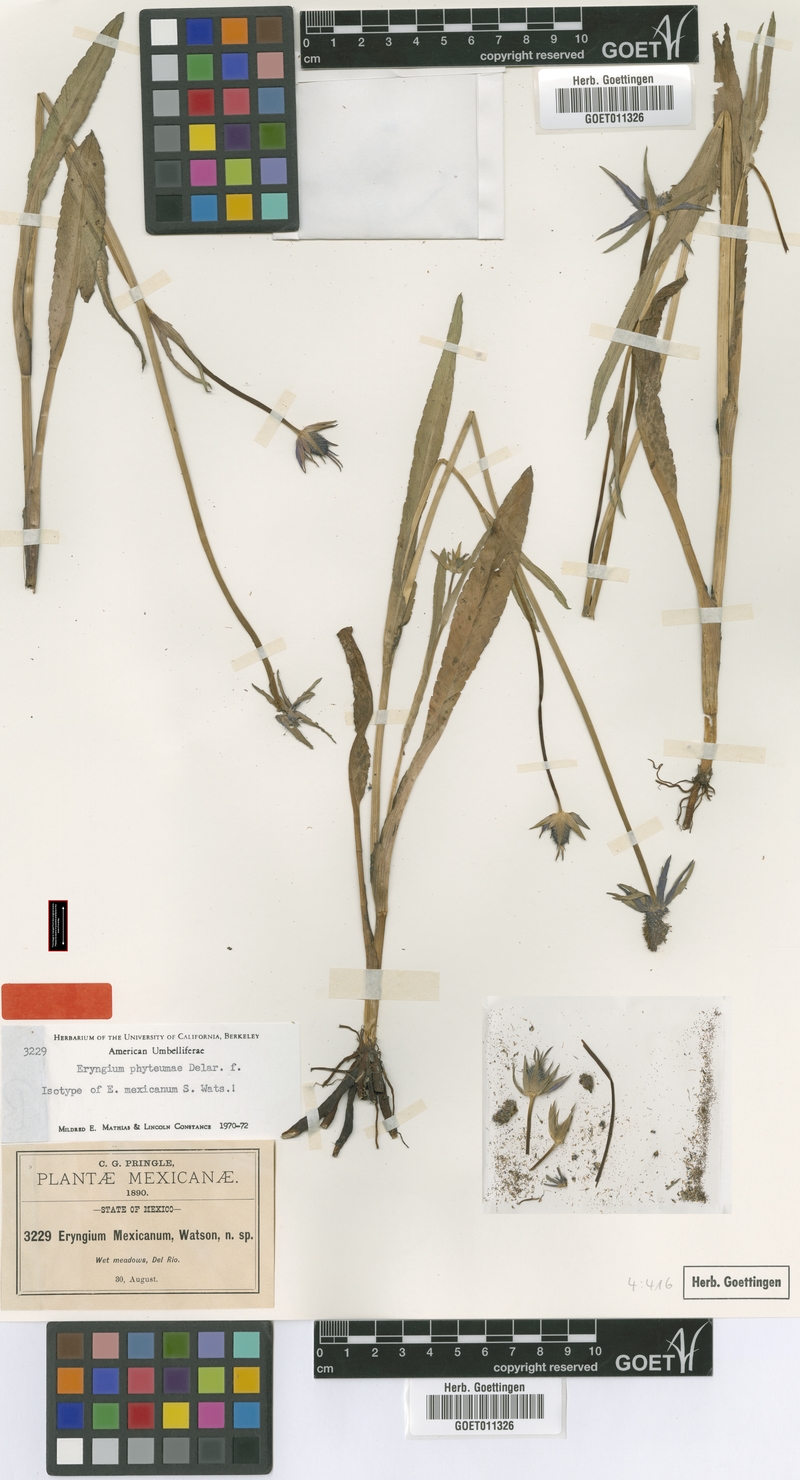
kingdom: Plantae
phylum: Tracheophyta
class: Magnoliopsida
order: Apiales
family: Apiaceae
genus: Eryngium
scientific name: Eryngium phyteumae
